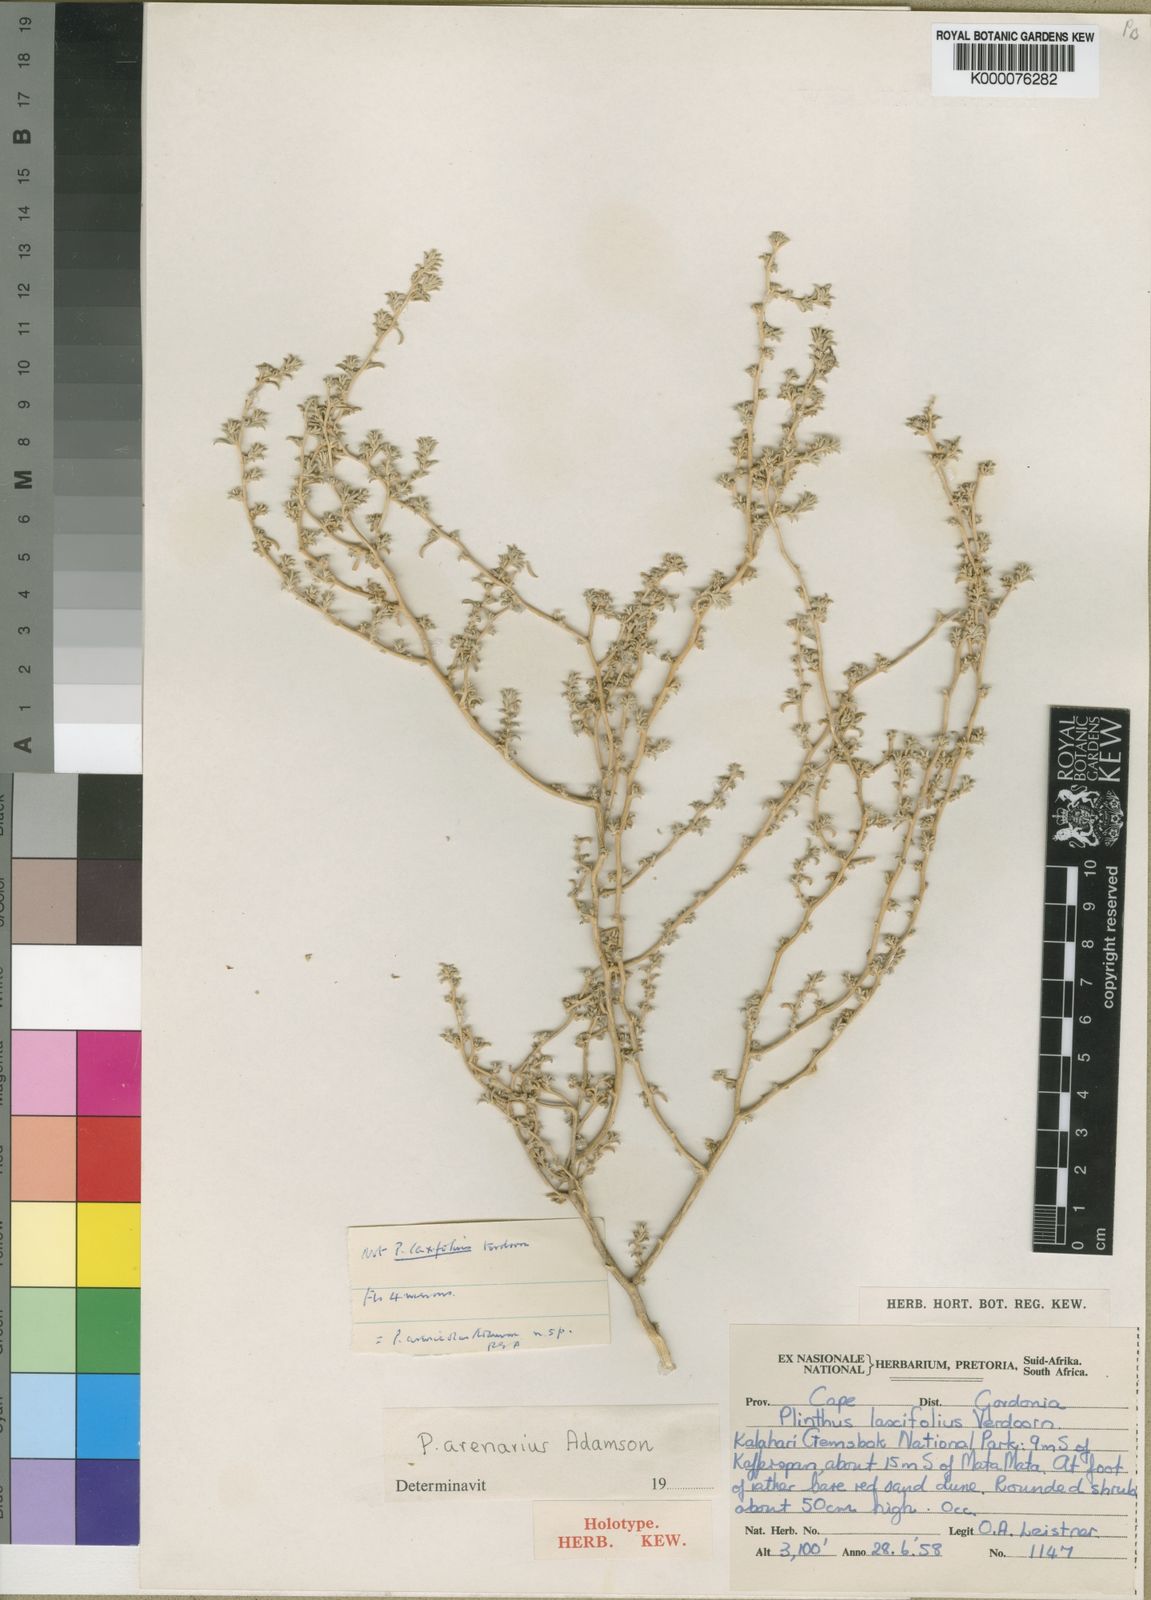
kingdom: Plantae
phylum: Tracheophyta
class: Magnoliopsida
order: Caryophyllales
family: Aizoaceae
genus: Aizoon
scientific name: Aizoon sericeum
